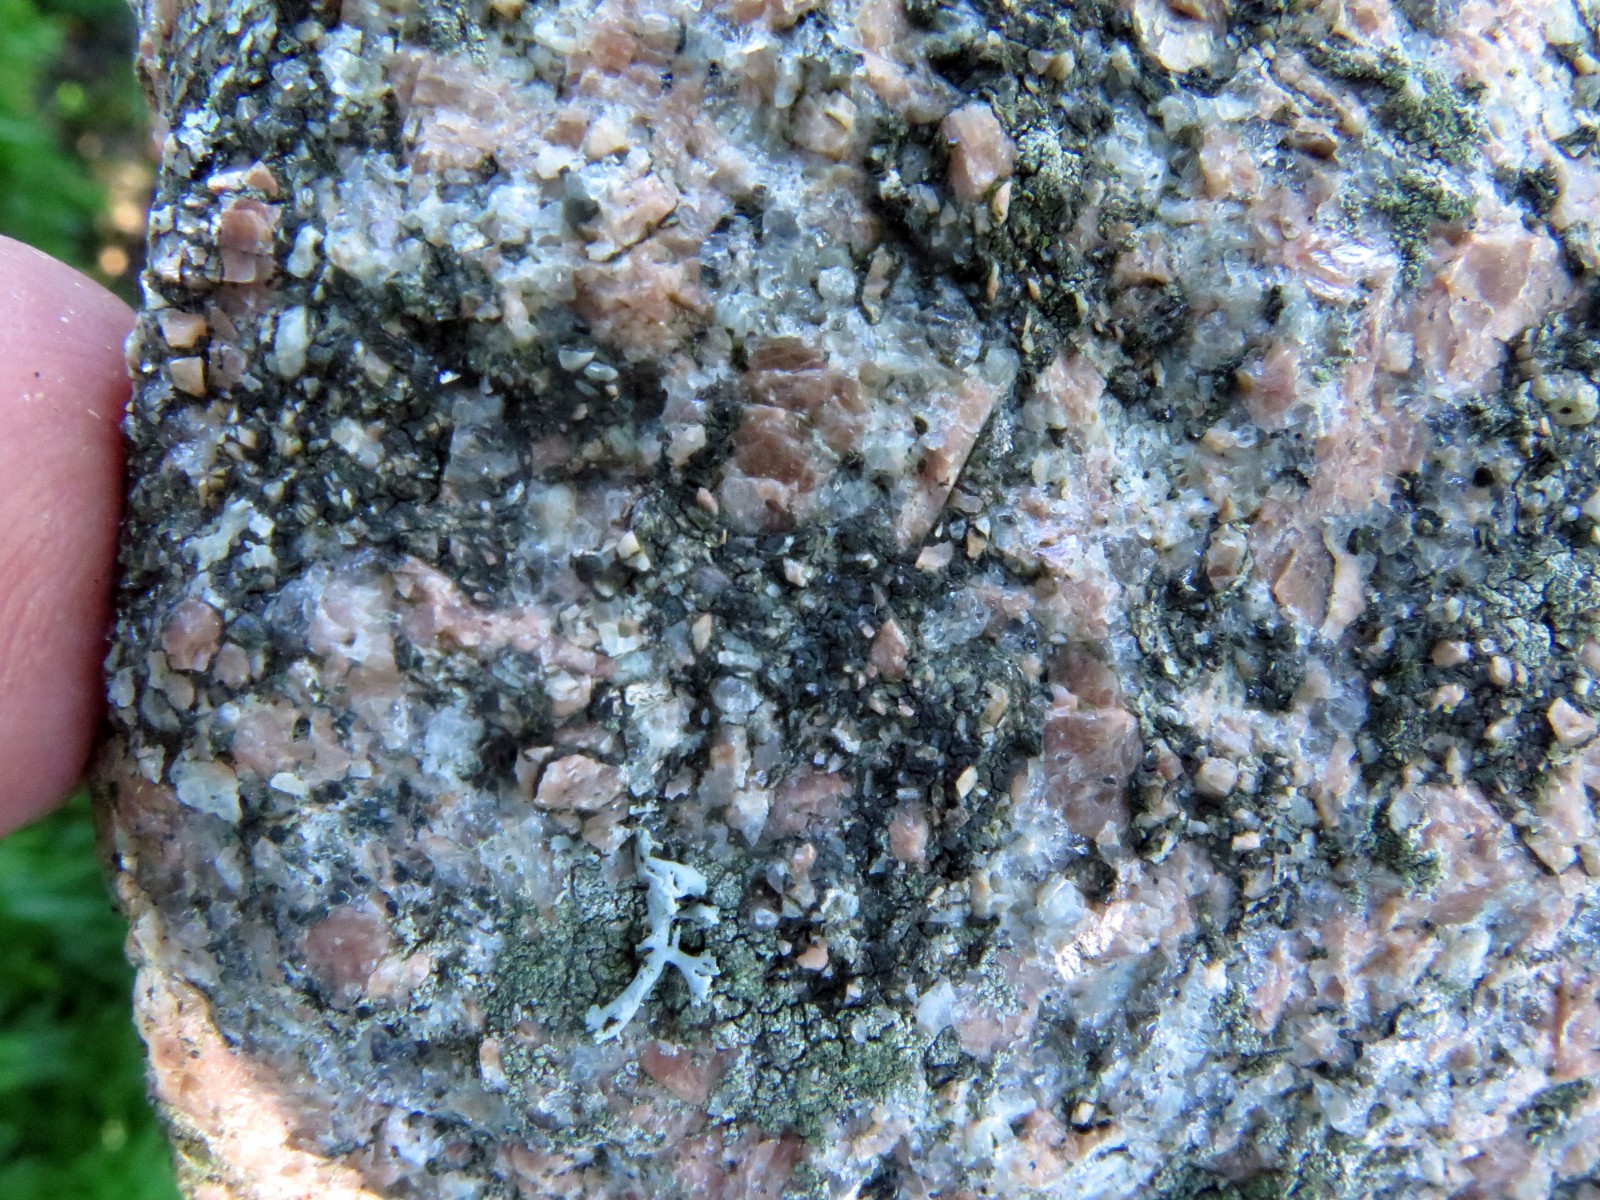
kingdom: Fungi
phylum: Ascomycota
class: Lecanoromycetes
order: Acarosporales
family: Acarosporaceae
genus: Acarospora
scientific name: Acarospora privigna
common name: sort foldekantlav
